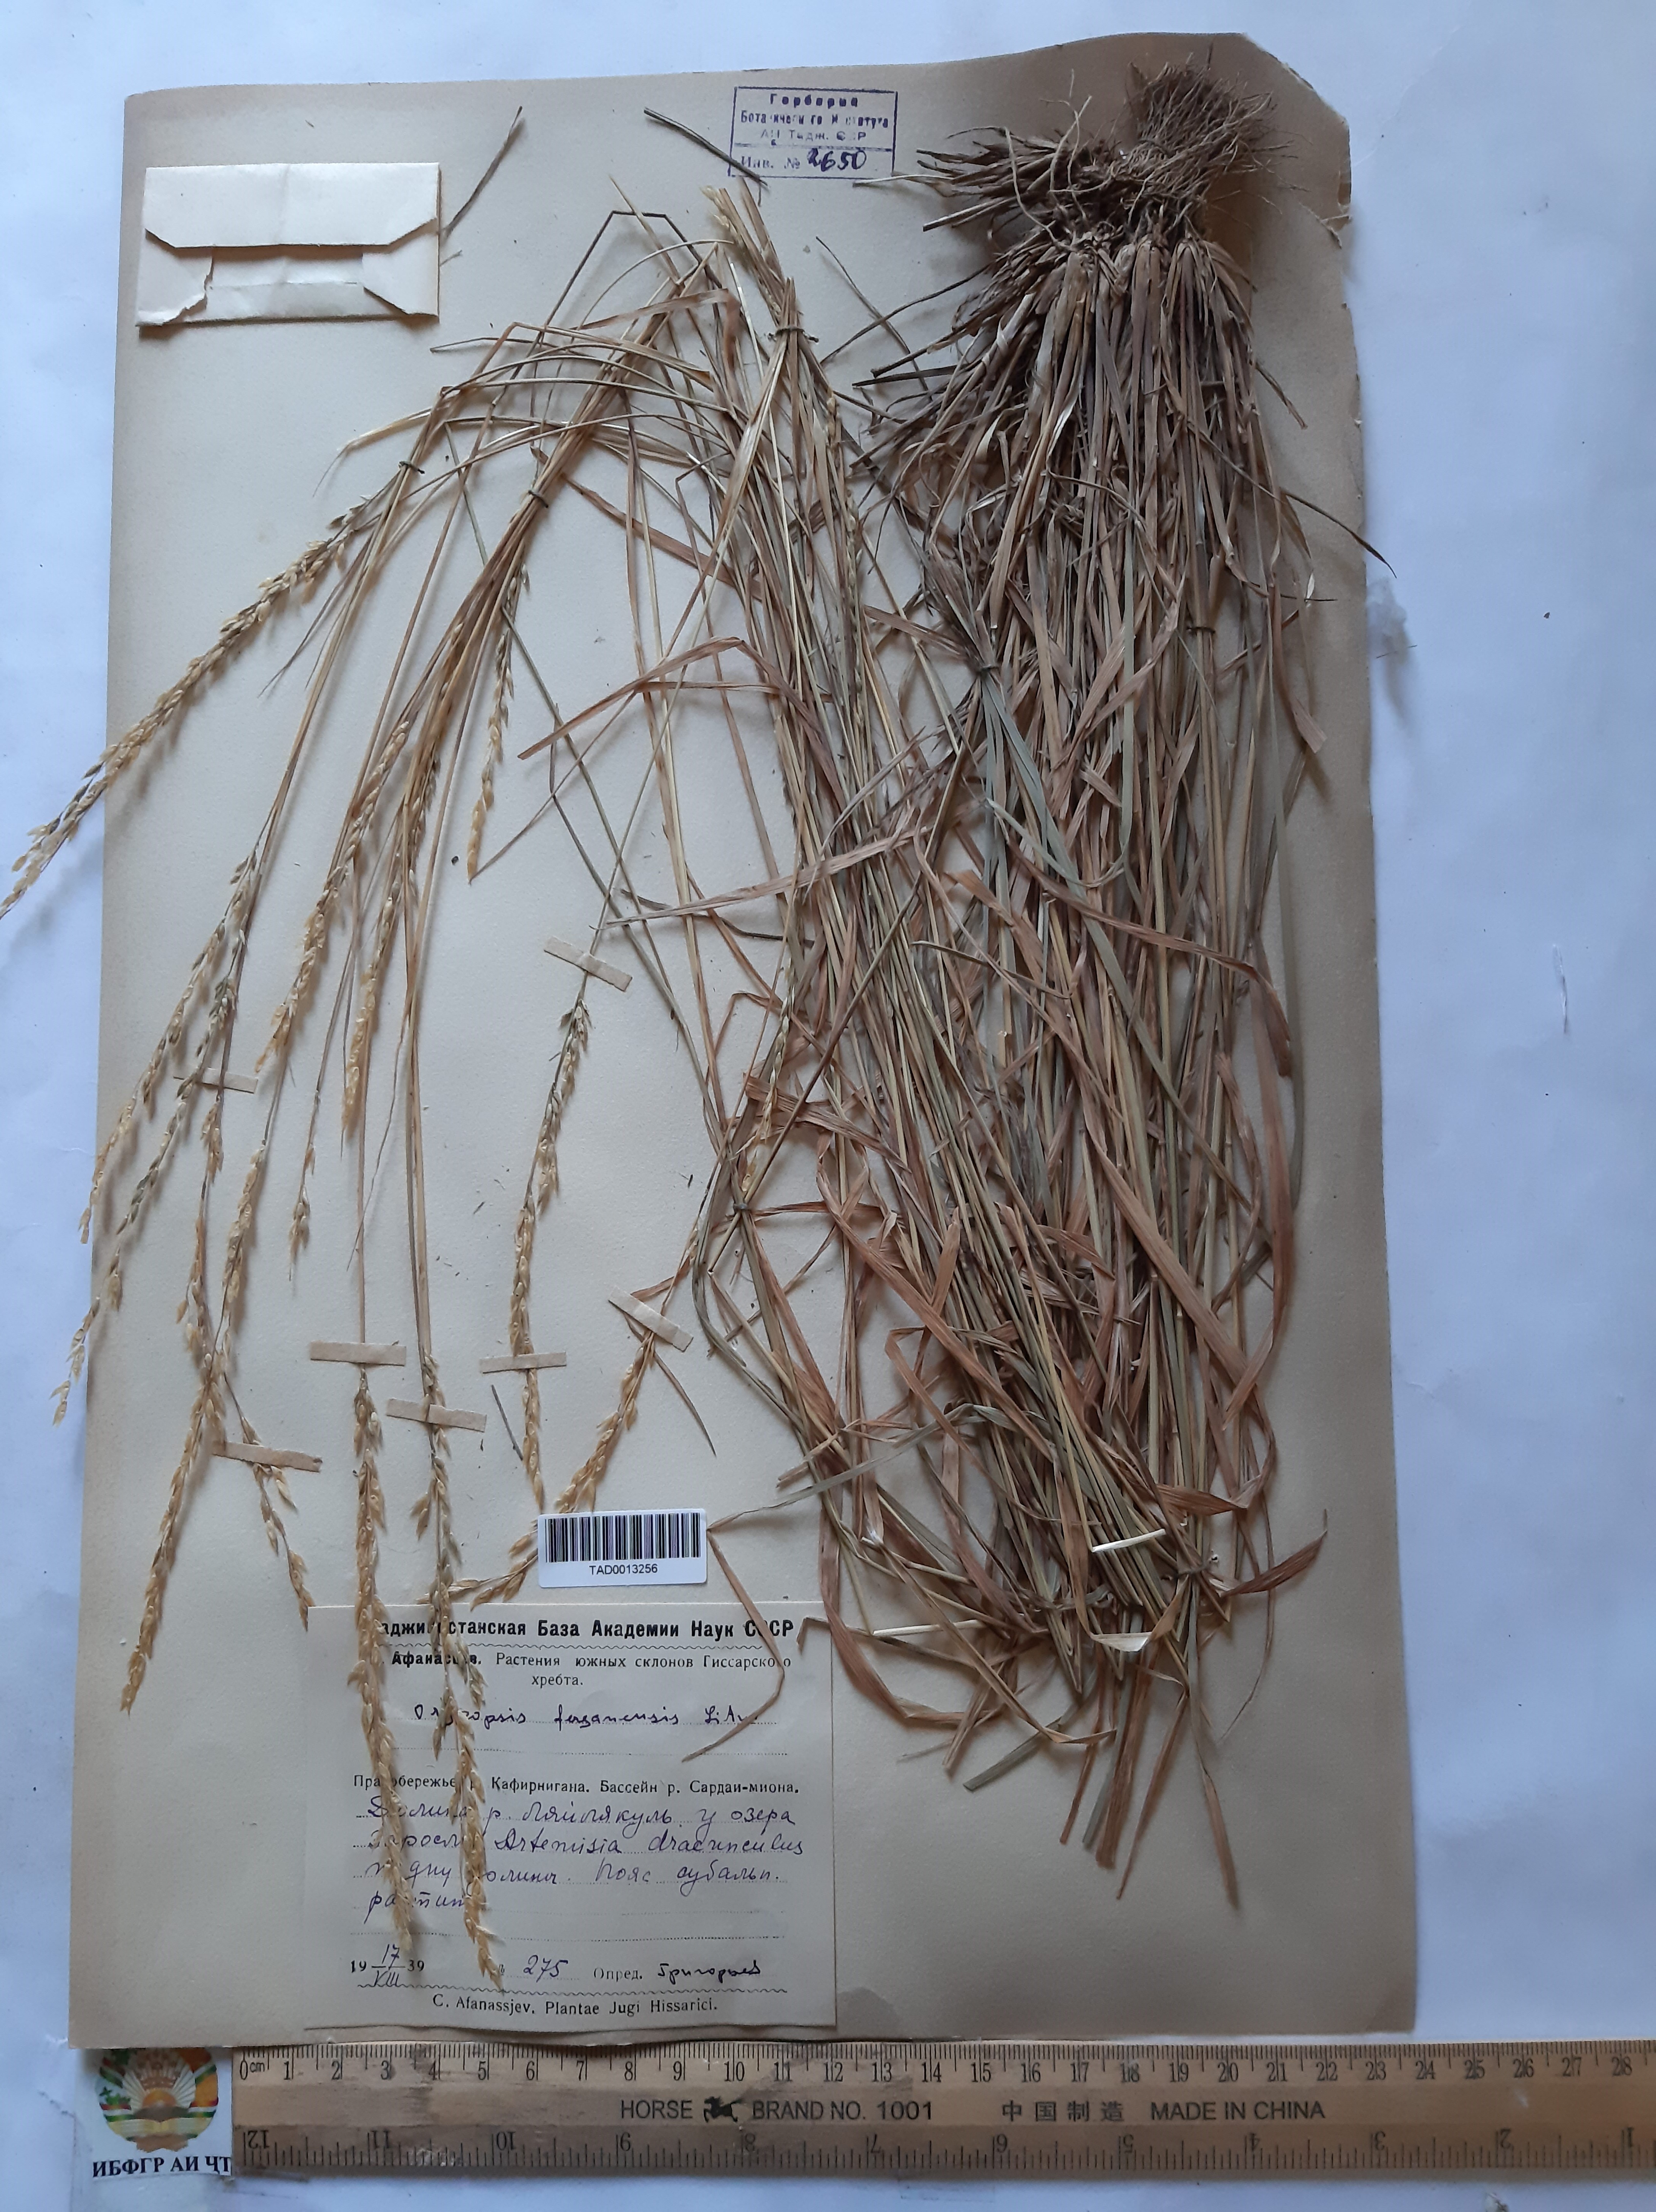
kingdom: Plantae
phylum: Tracheophyta
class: Liliopsida
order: Poales
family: Poaceae
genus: Piptatherum
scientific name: Piptatherum ferganense
